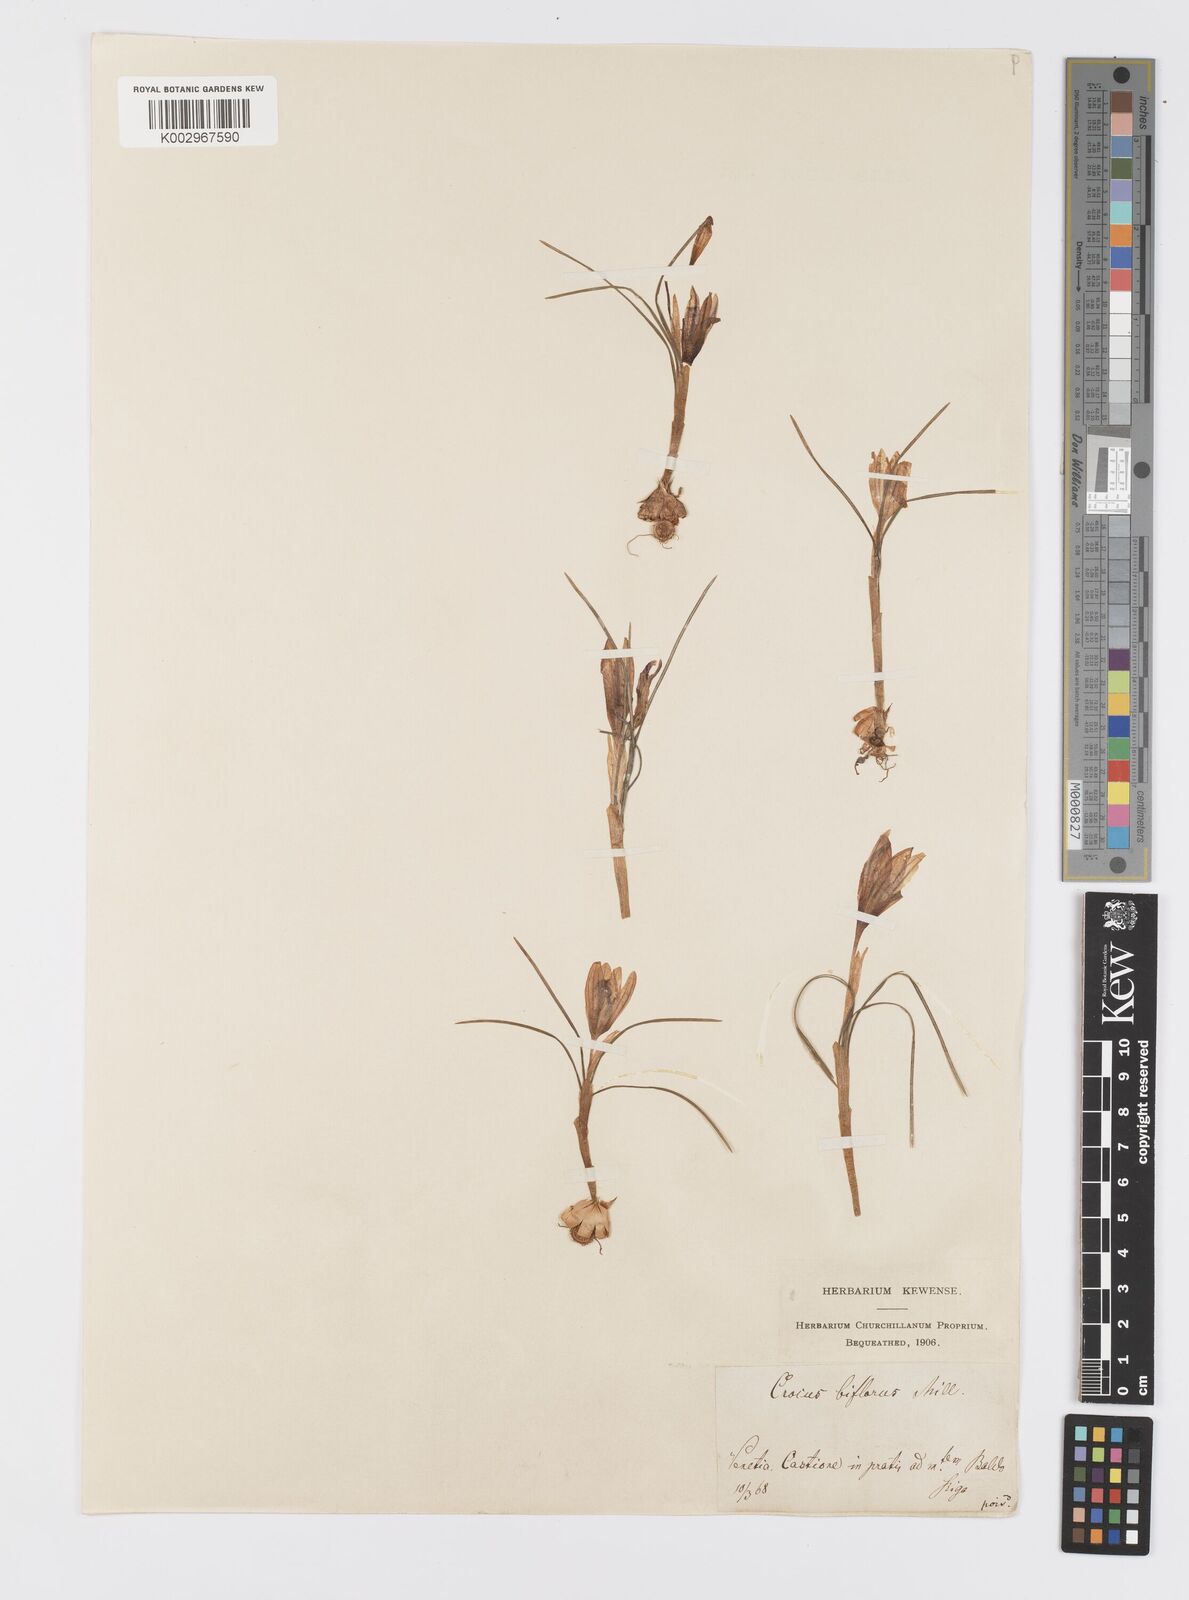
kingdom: Plantae
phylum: Tracheophyta
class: Liliopsida
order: Asparagales
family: Iridaceae
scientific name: Iridaceae
